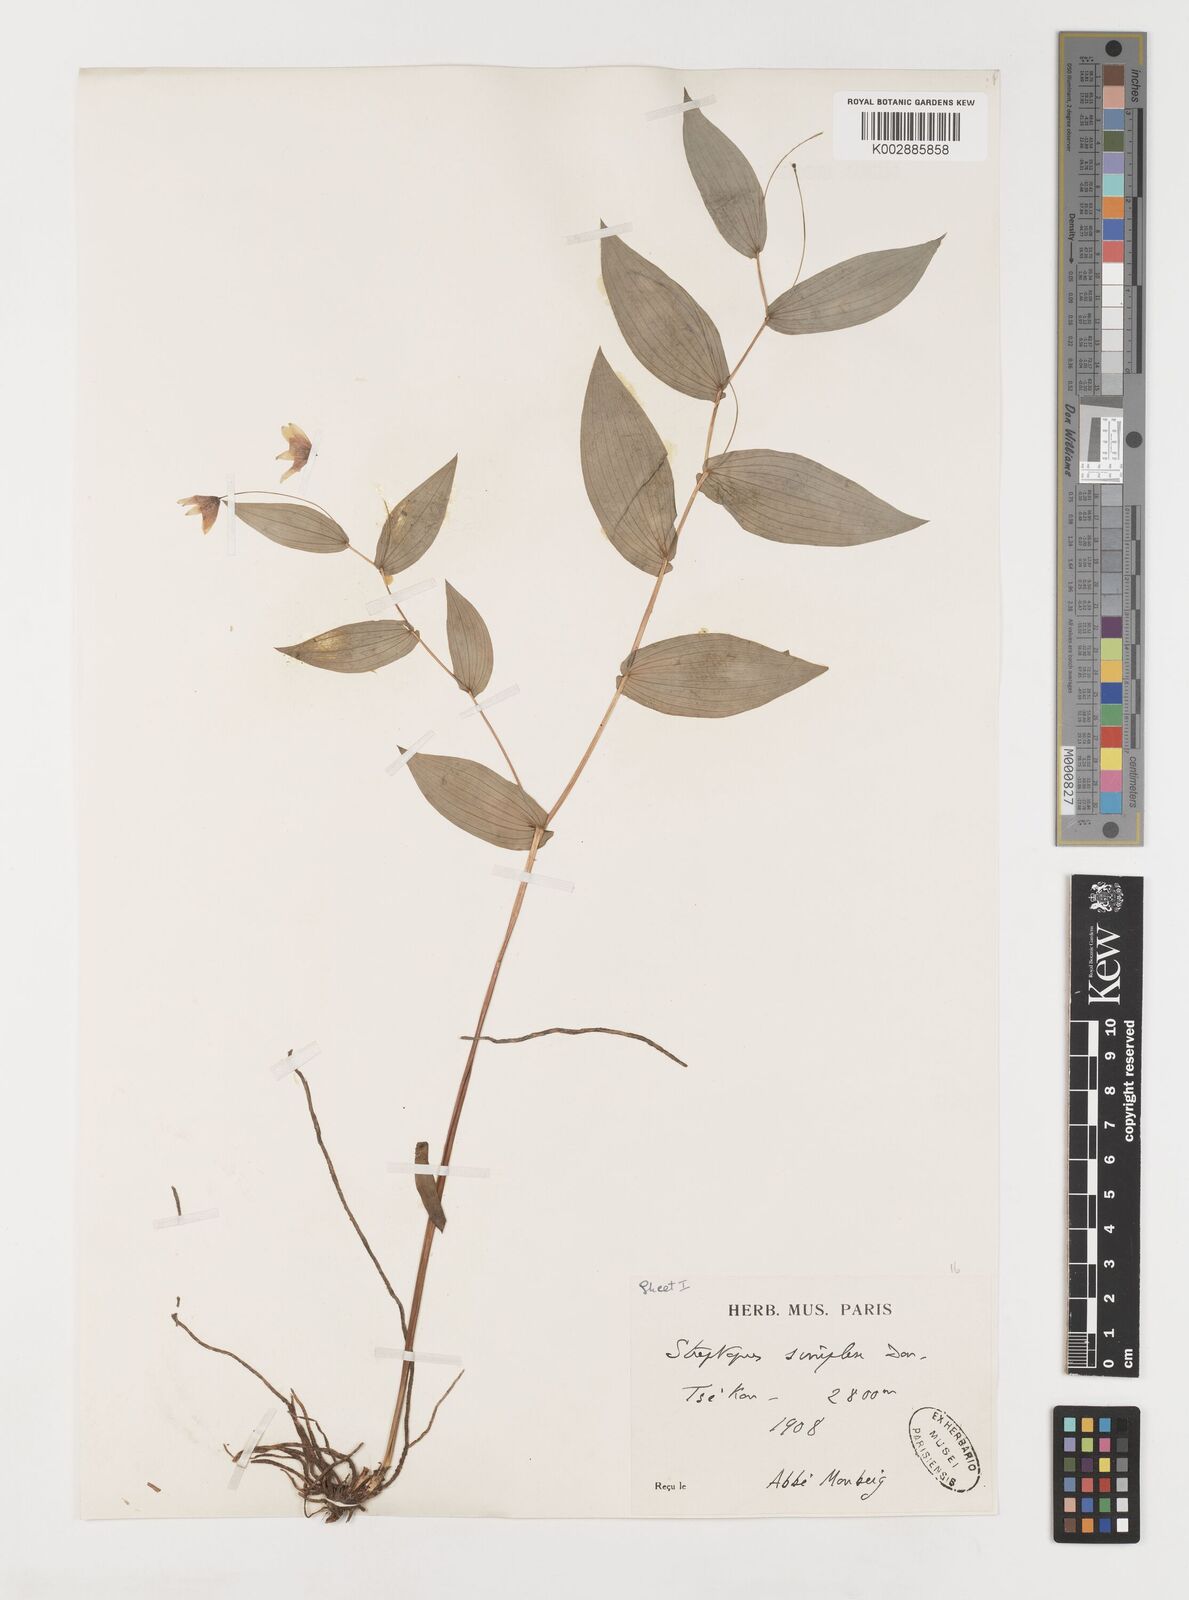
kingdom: Plantae
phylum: Tracheophyta
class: Liliopsida
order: Liliales
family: Liliaceae
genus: Streptopus
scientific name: Streptopus simplex
